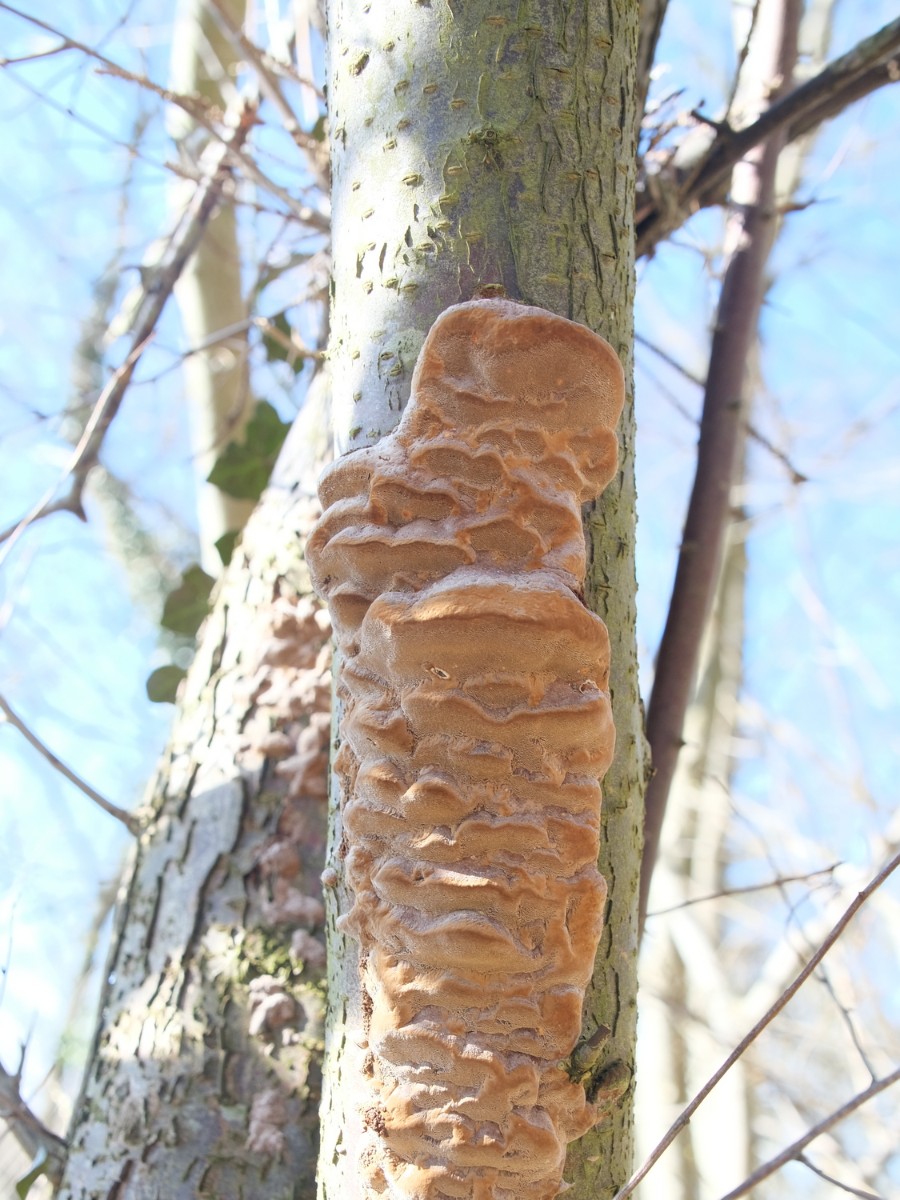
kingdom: Fungi
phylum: Basidiomycota
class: Agaricomycetes
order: Hymenochaetales
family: Hymenochaetaceae
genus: Phellinus
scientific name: Phellinus pomaceus
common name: blomme-ildporesvamp
